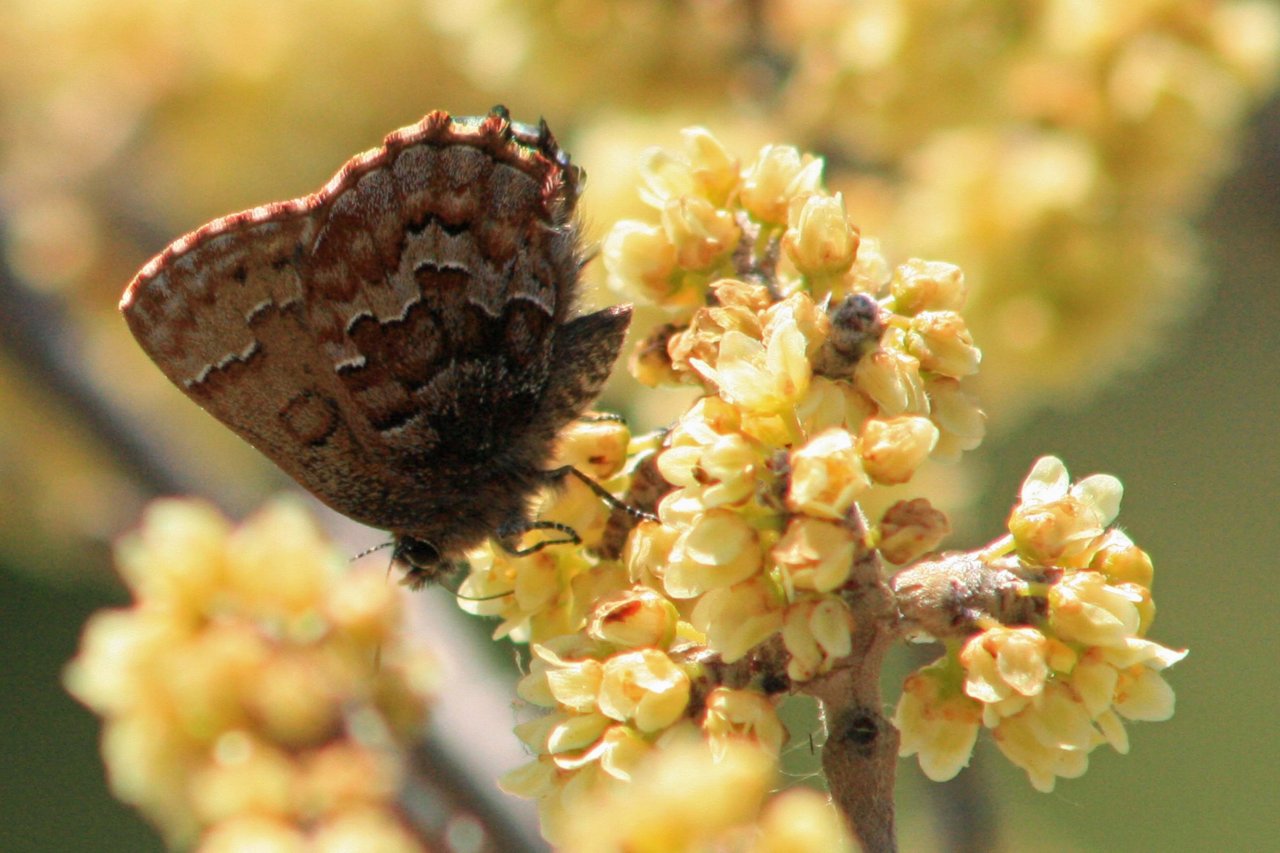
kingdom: Animalia
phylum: Arthropoda
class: Insecta
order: Lepidoptera
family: Lycaenidae
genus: Incisalia
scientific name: Incisalia niphon
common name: Eastern Pine Elfin
